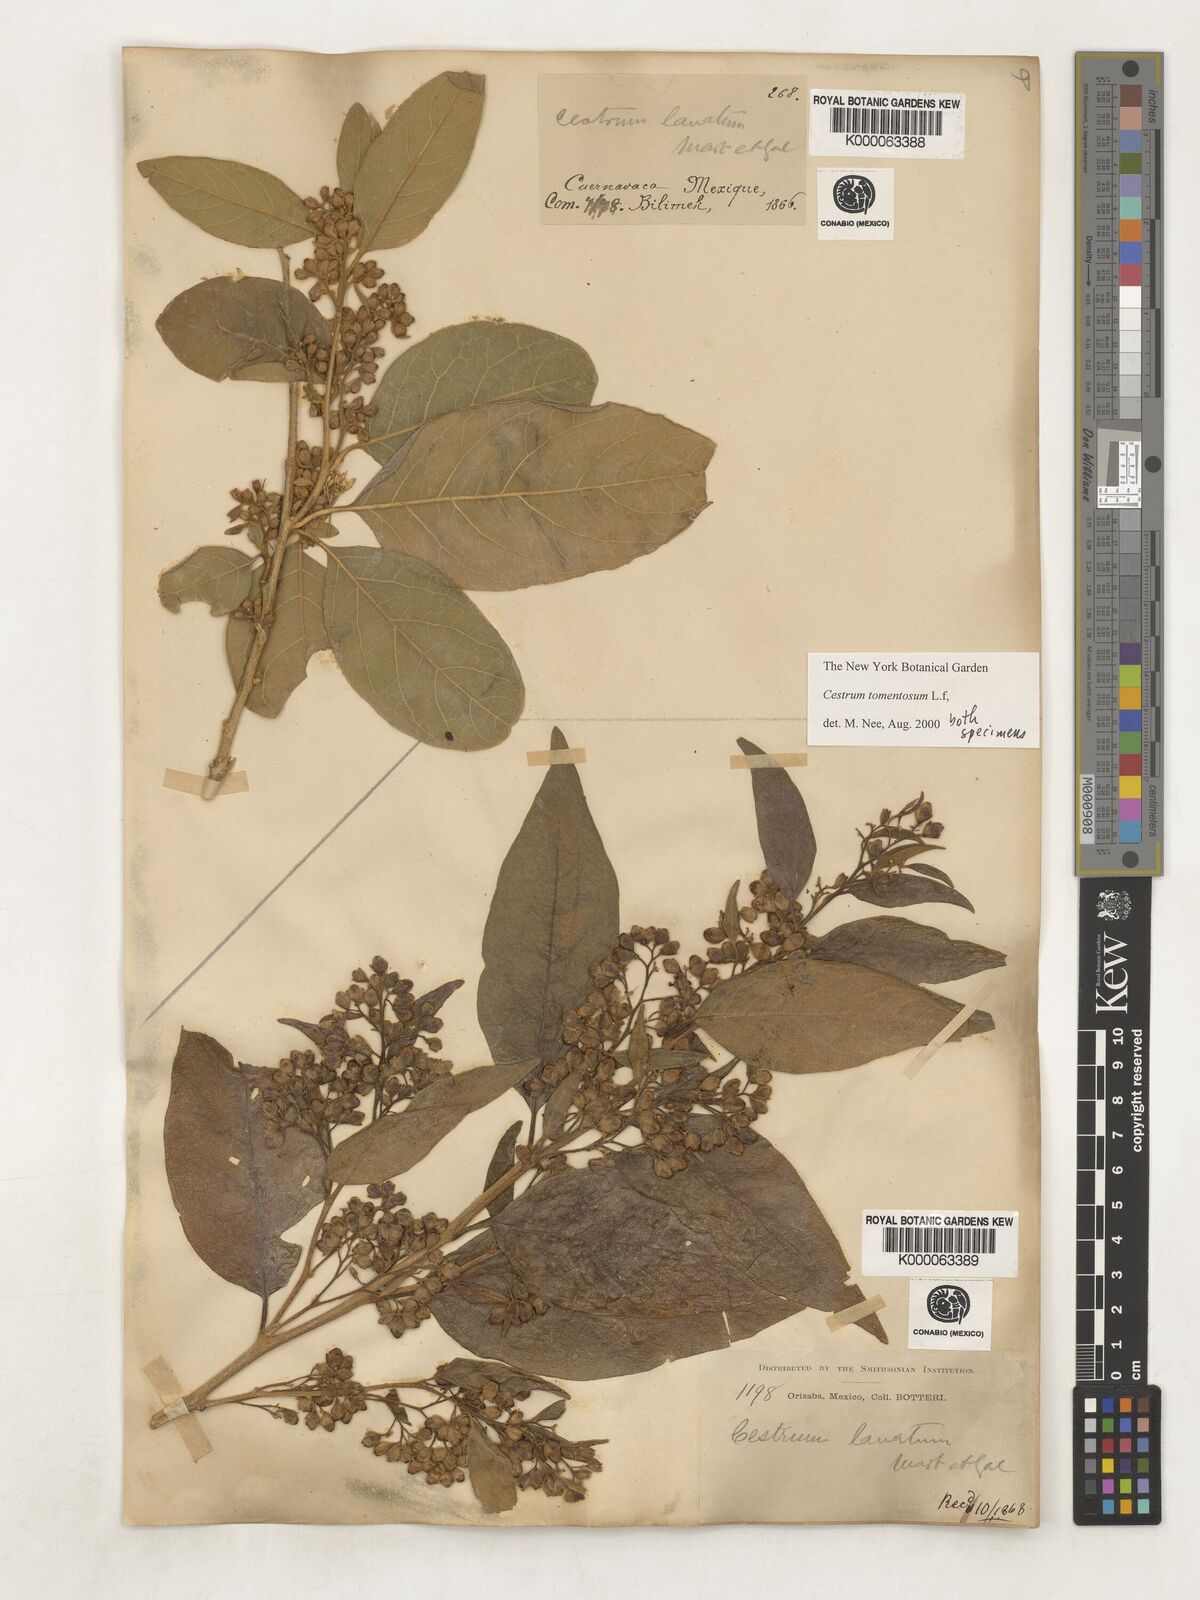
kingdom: Plantae
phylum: Tracheophyta
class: Magnoliopsida
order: Solanales
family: Solanaceae
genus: Cestrum
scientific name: Cestrum tomentosum
